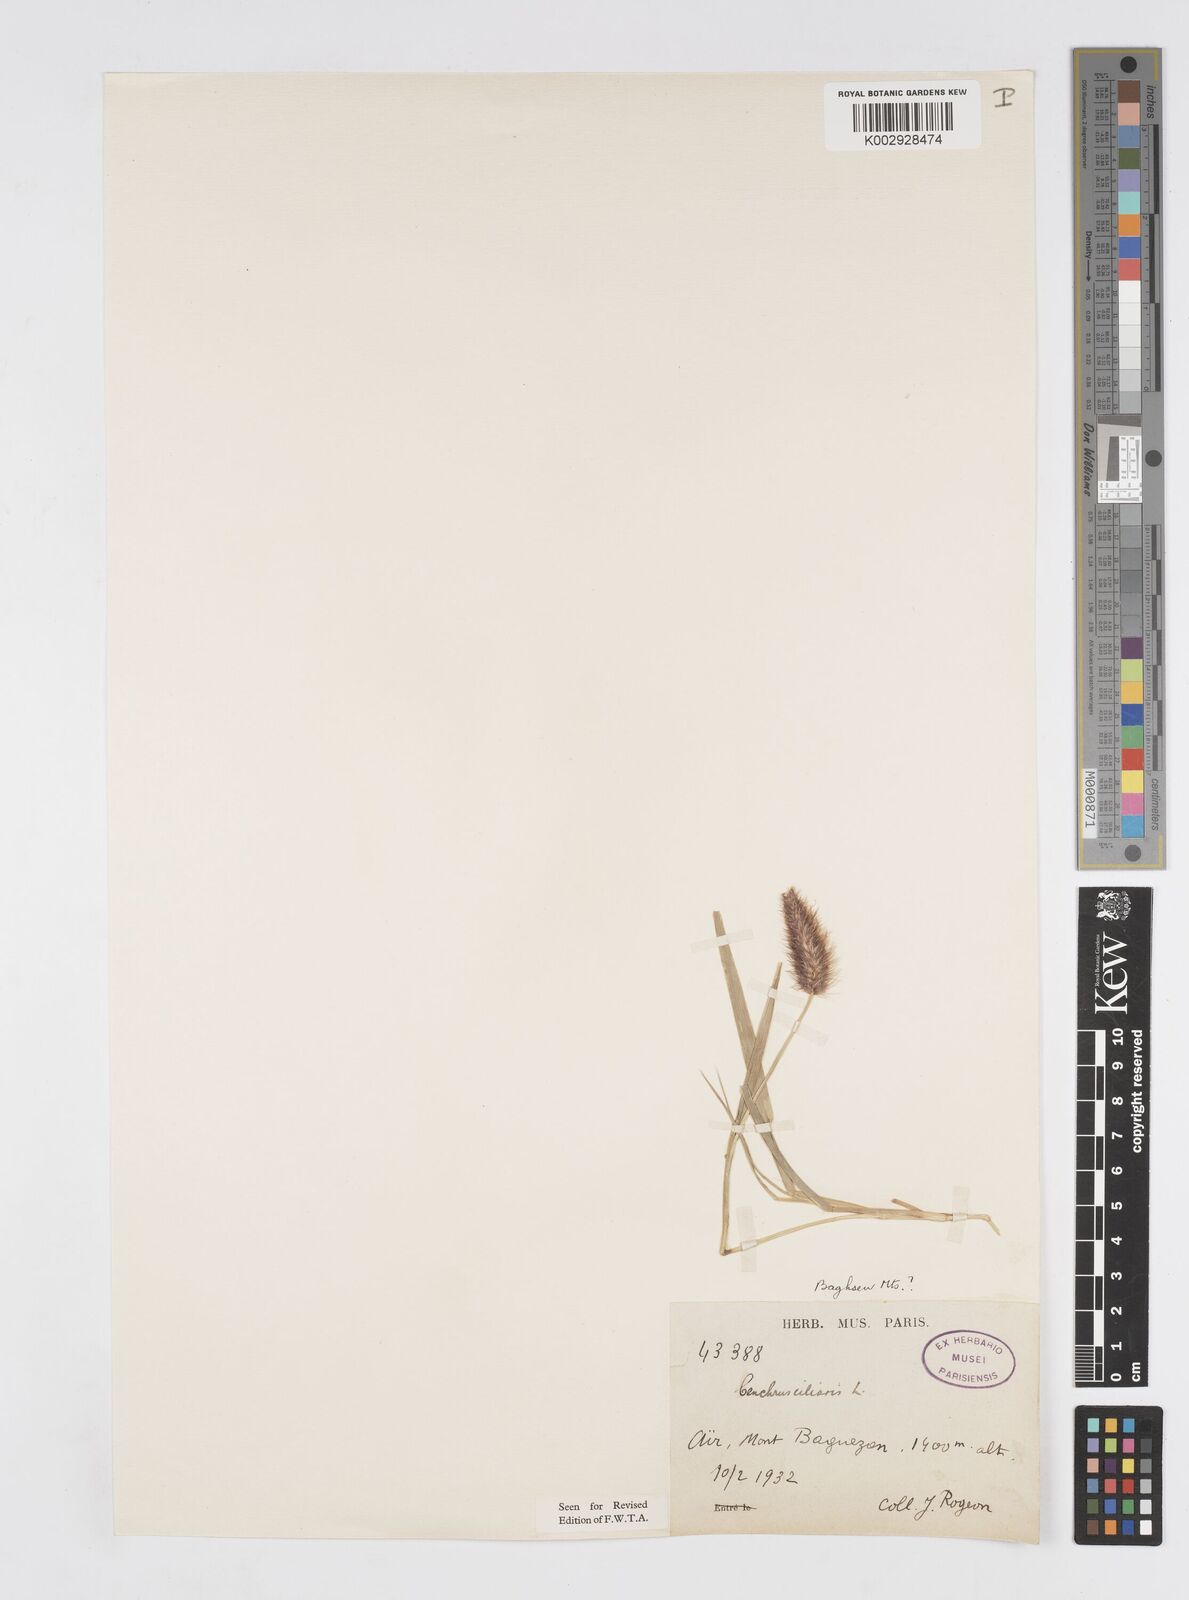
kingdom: Plantae
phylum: Tracheophyta
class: Liliopsida
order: Poales
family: Poaceae
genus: Cenchrus
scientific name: Cenchrus ciliaris
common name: Buffelgrass
